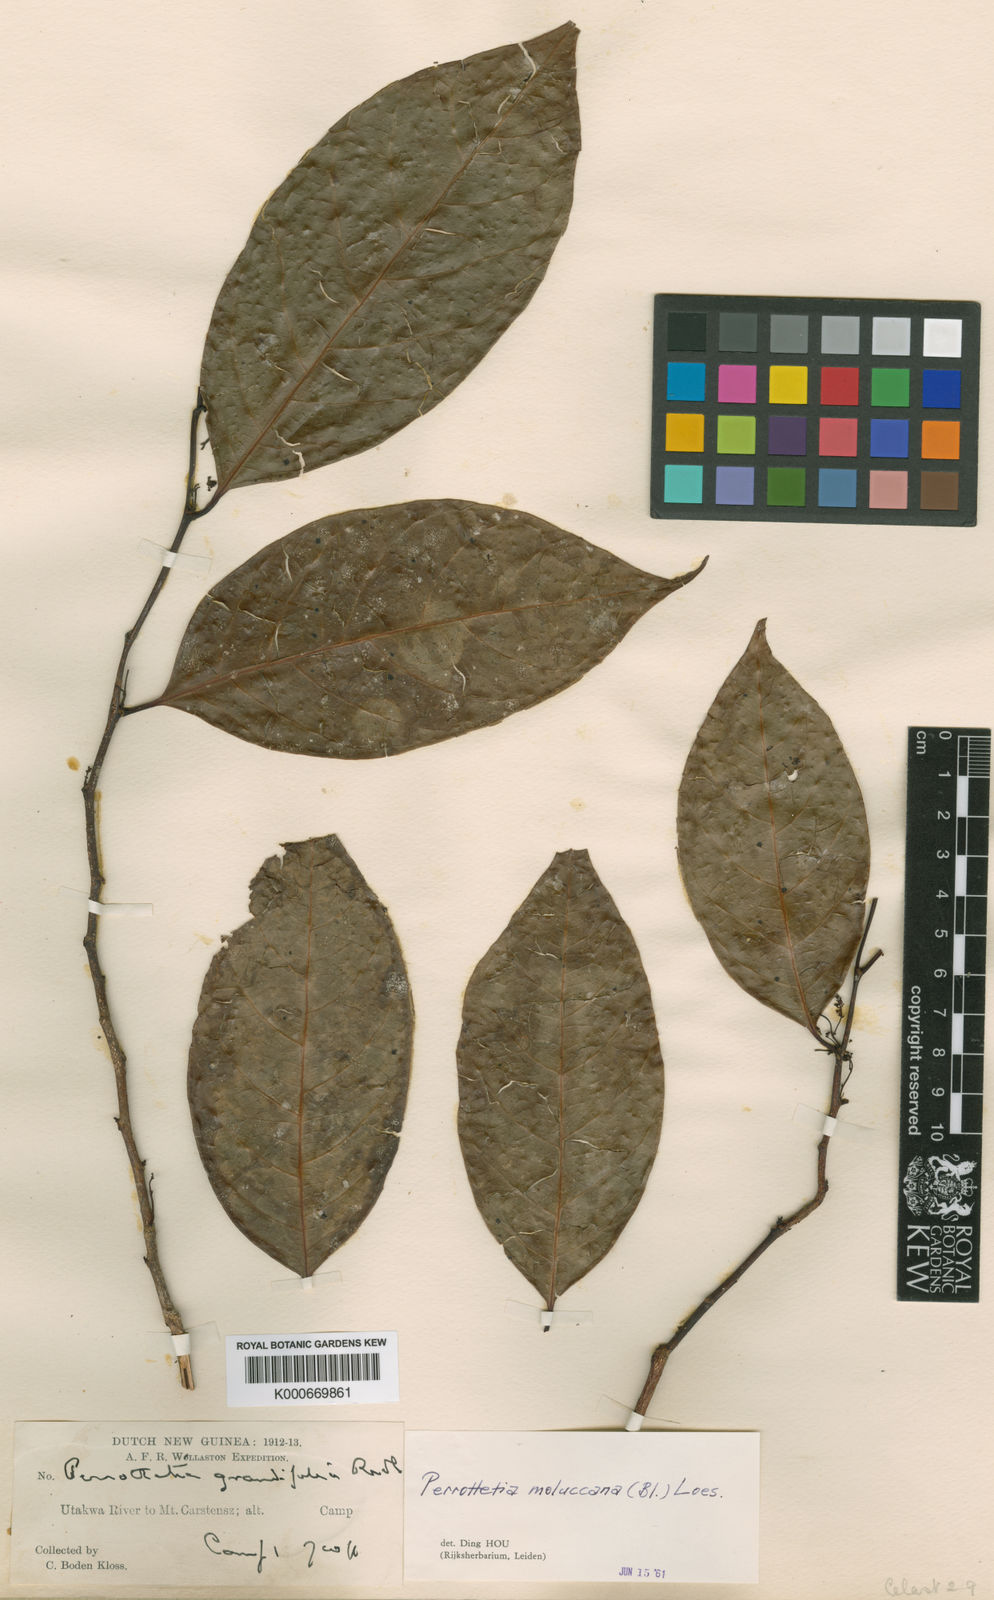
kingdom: Plantae
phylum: Tracheophyta
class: Magnoliopsida
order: Huerteales
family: Dipentodontaceae
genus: Perrottetia
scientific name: Perrottetia alpestris
